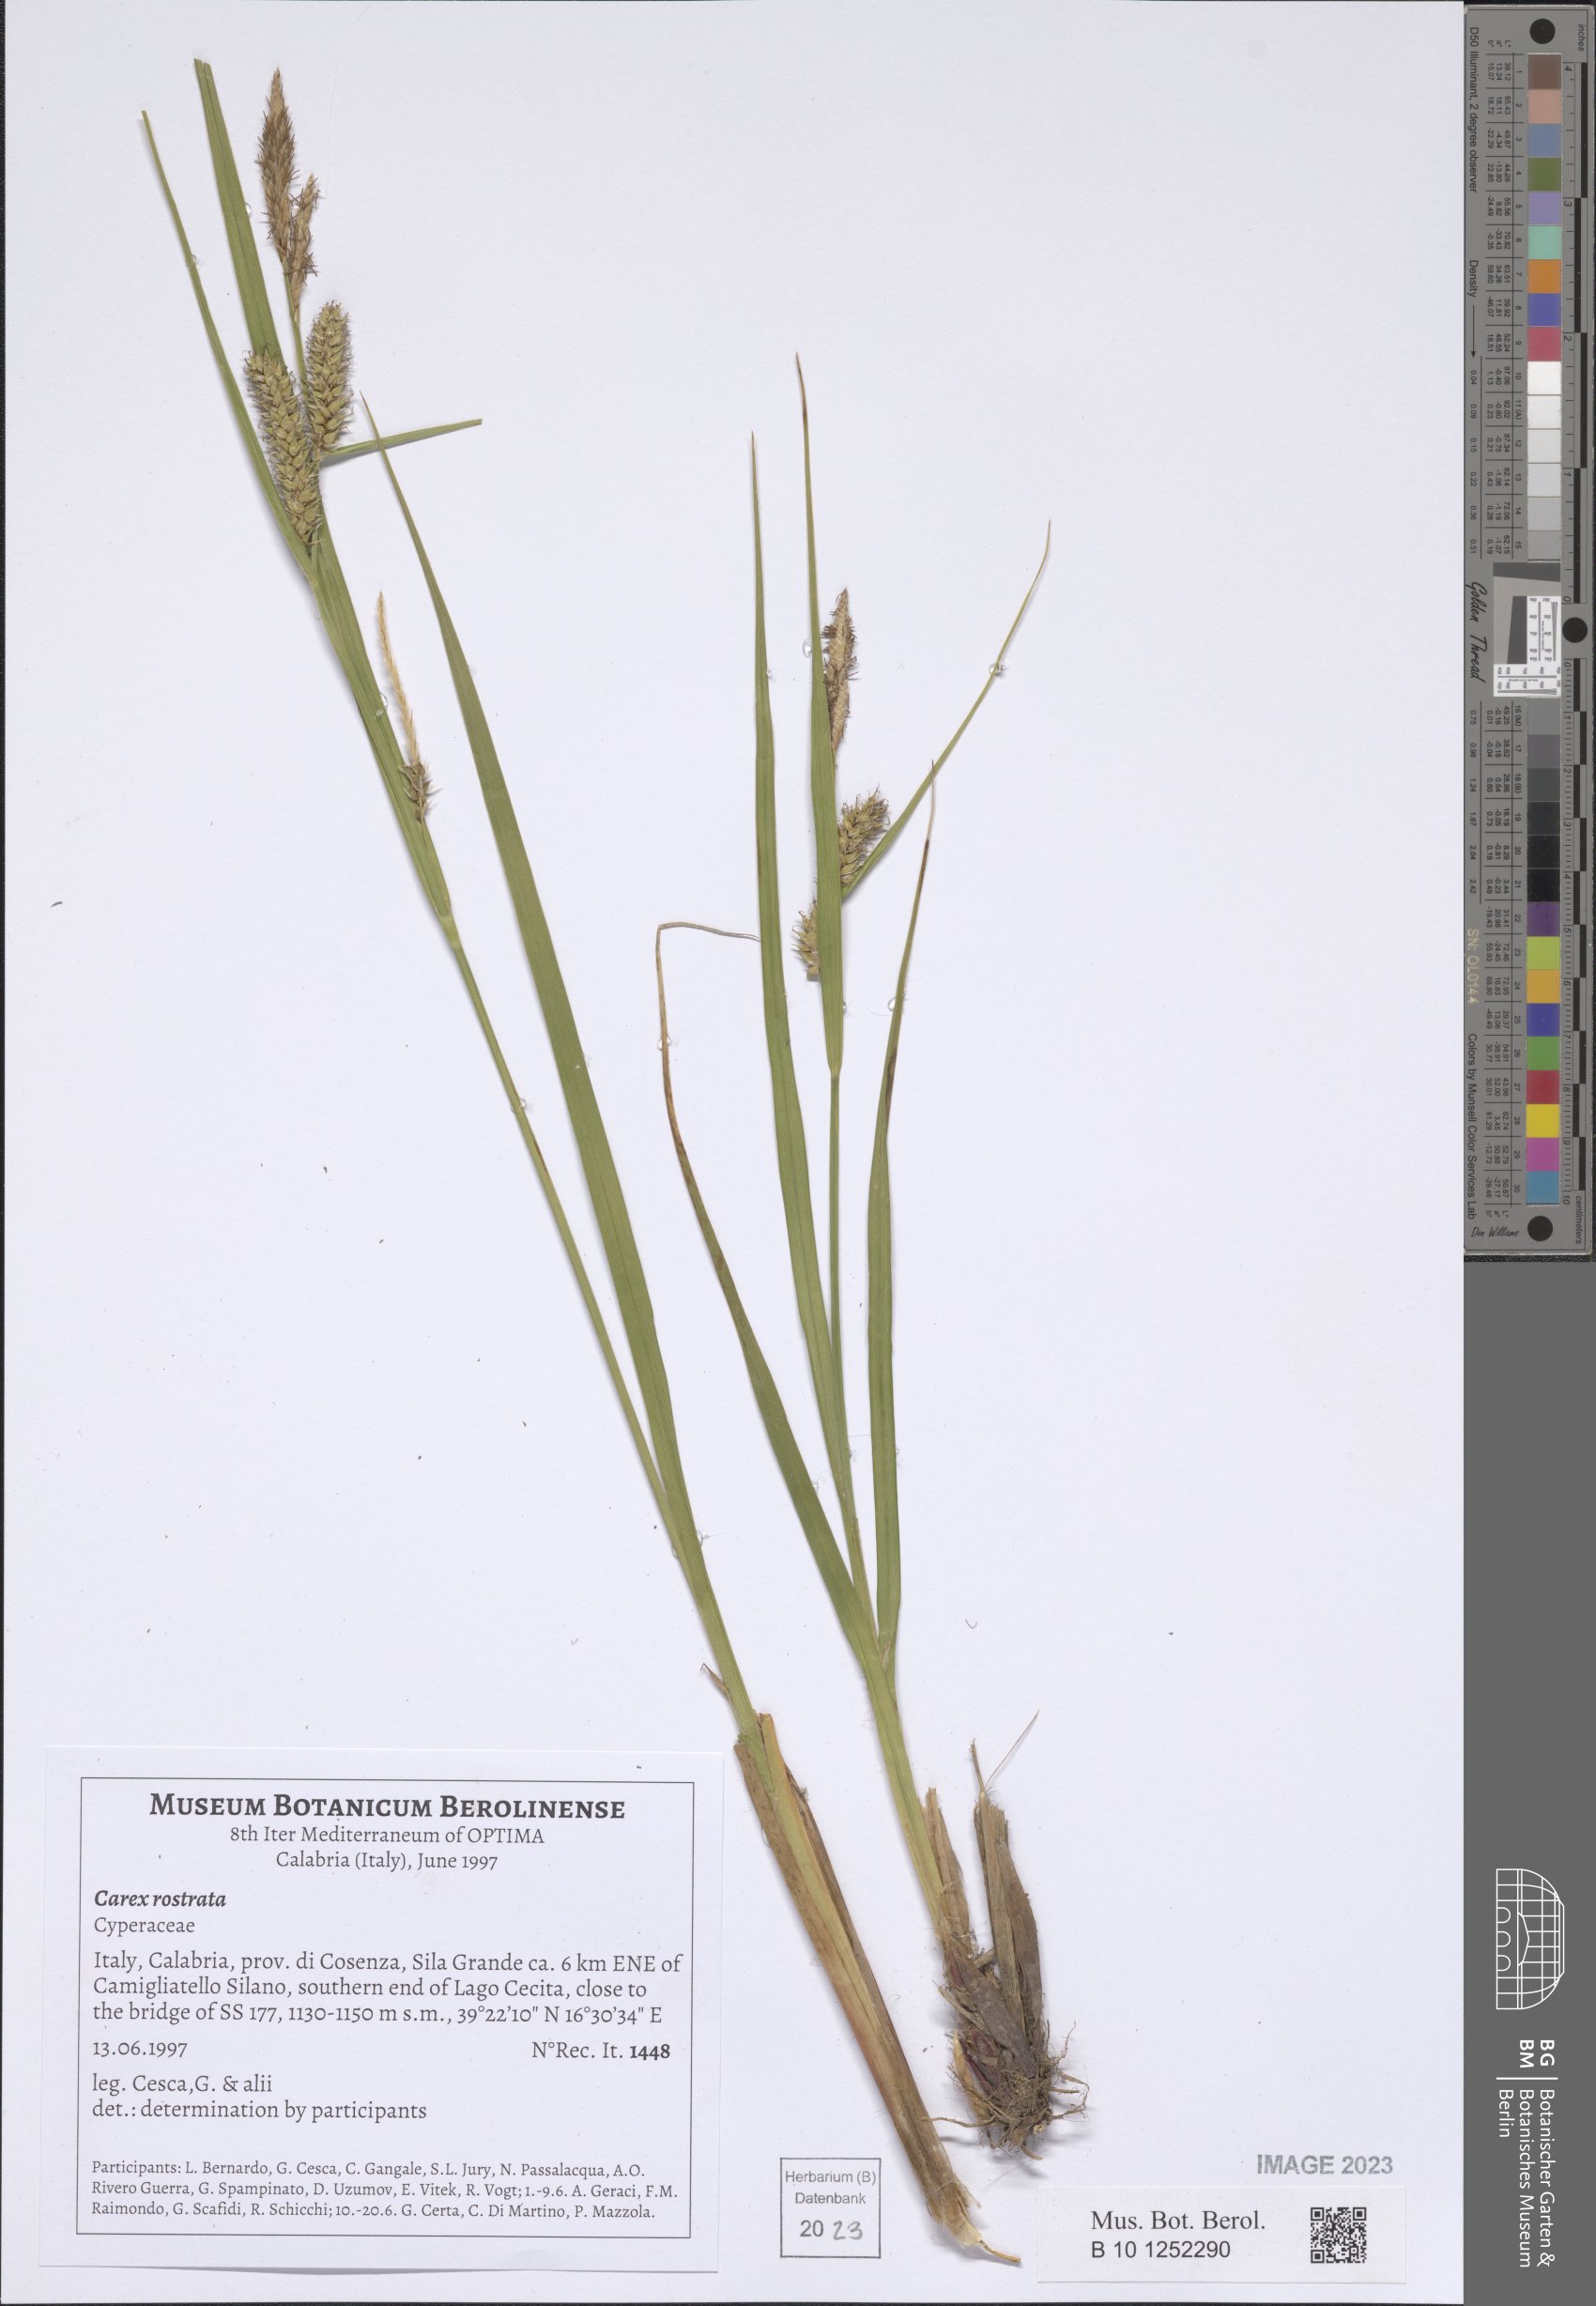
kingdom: Plantae
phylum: Tracheophyta
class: Liliopsida
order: Poales
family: Cyperaceae
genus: Carex
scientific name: Carex rostrata
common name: Bottle sedge
